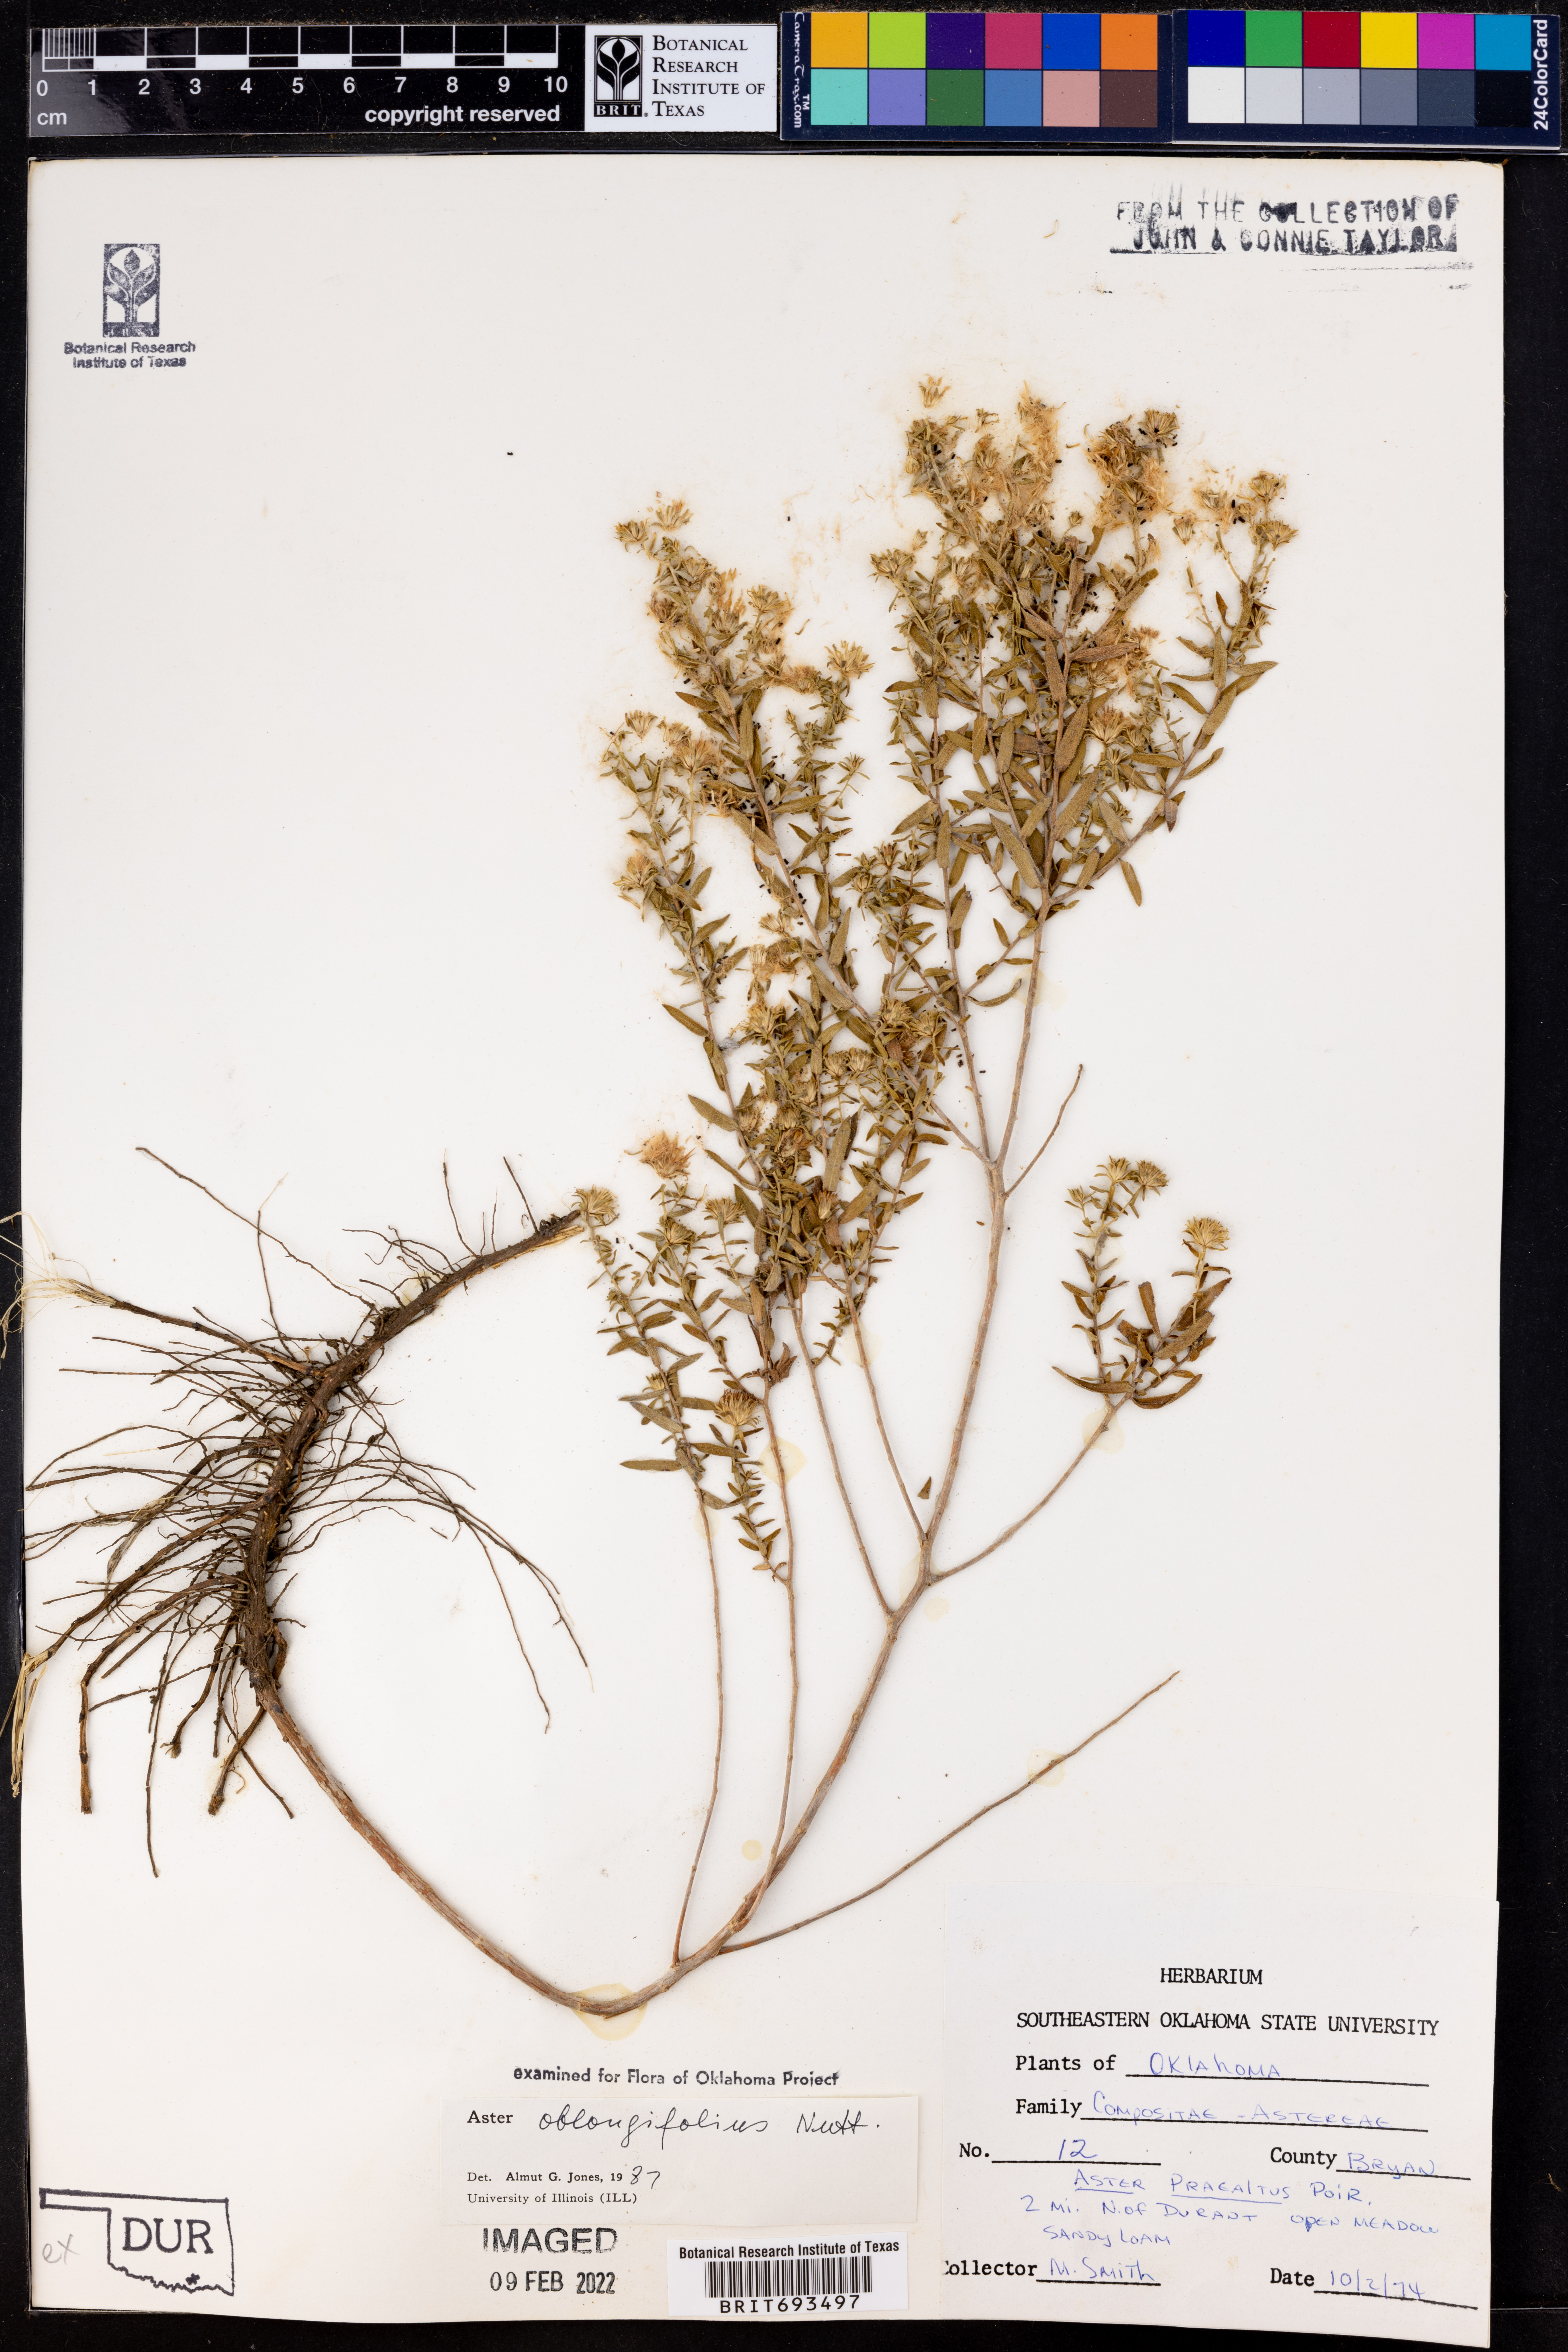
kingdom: Plantae
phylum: Tracheophyta
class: Magnoliopsida
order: Asterales
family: Asteraceae
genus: Symphyotrichum
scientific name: Symphyotrichum oblongifolium
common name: Aromatic aster
